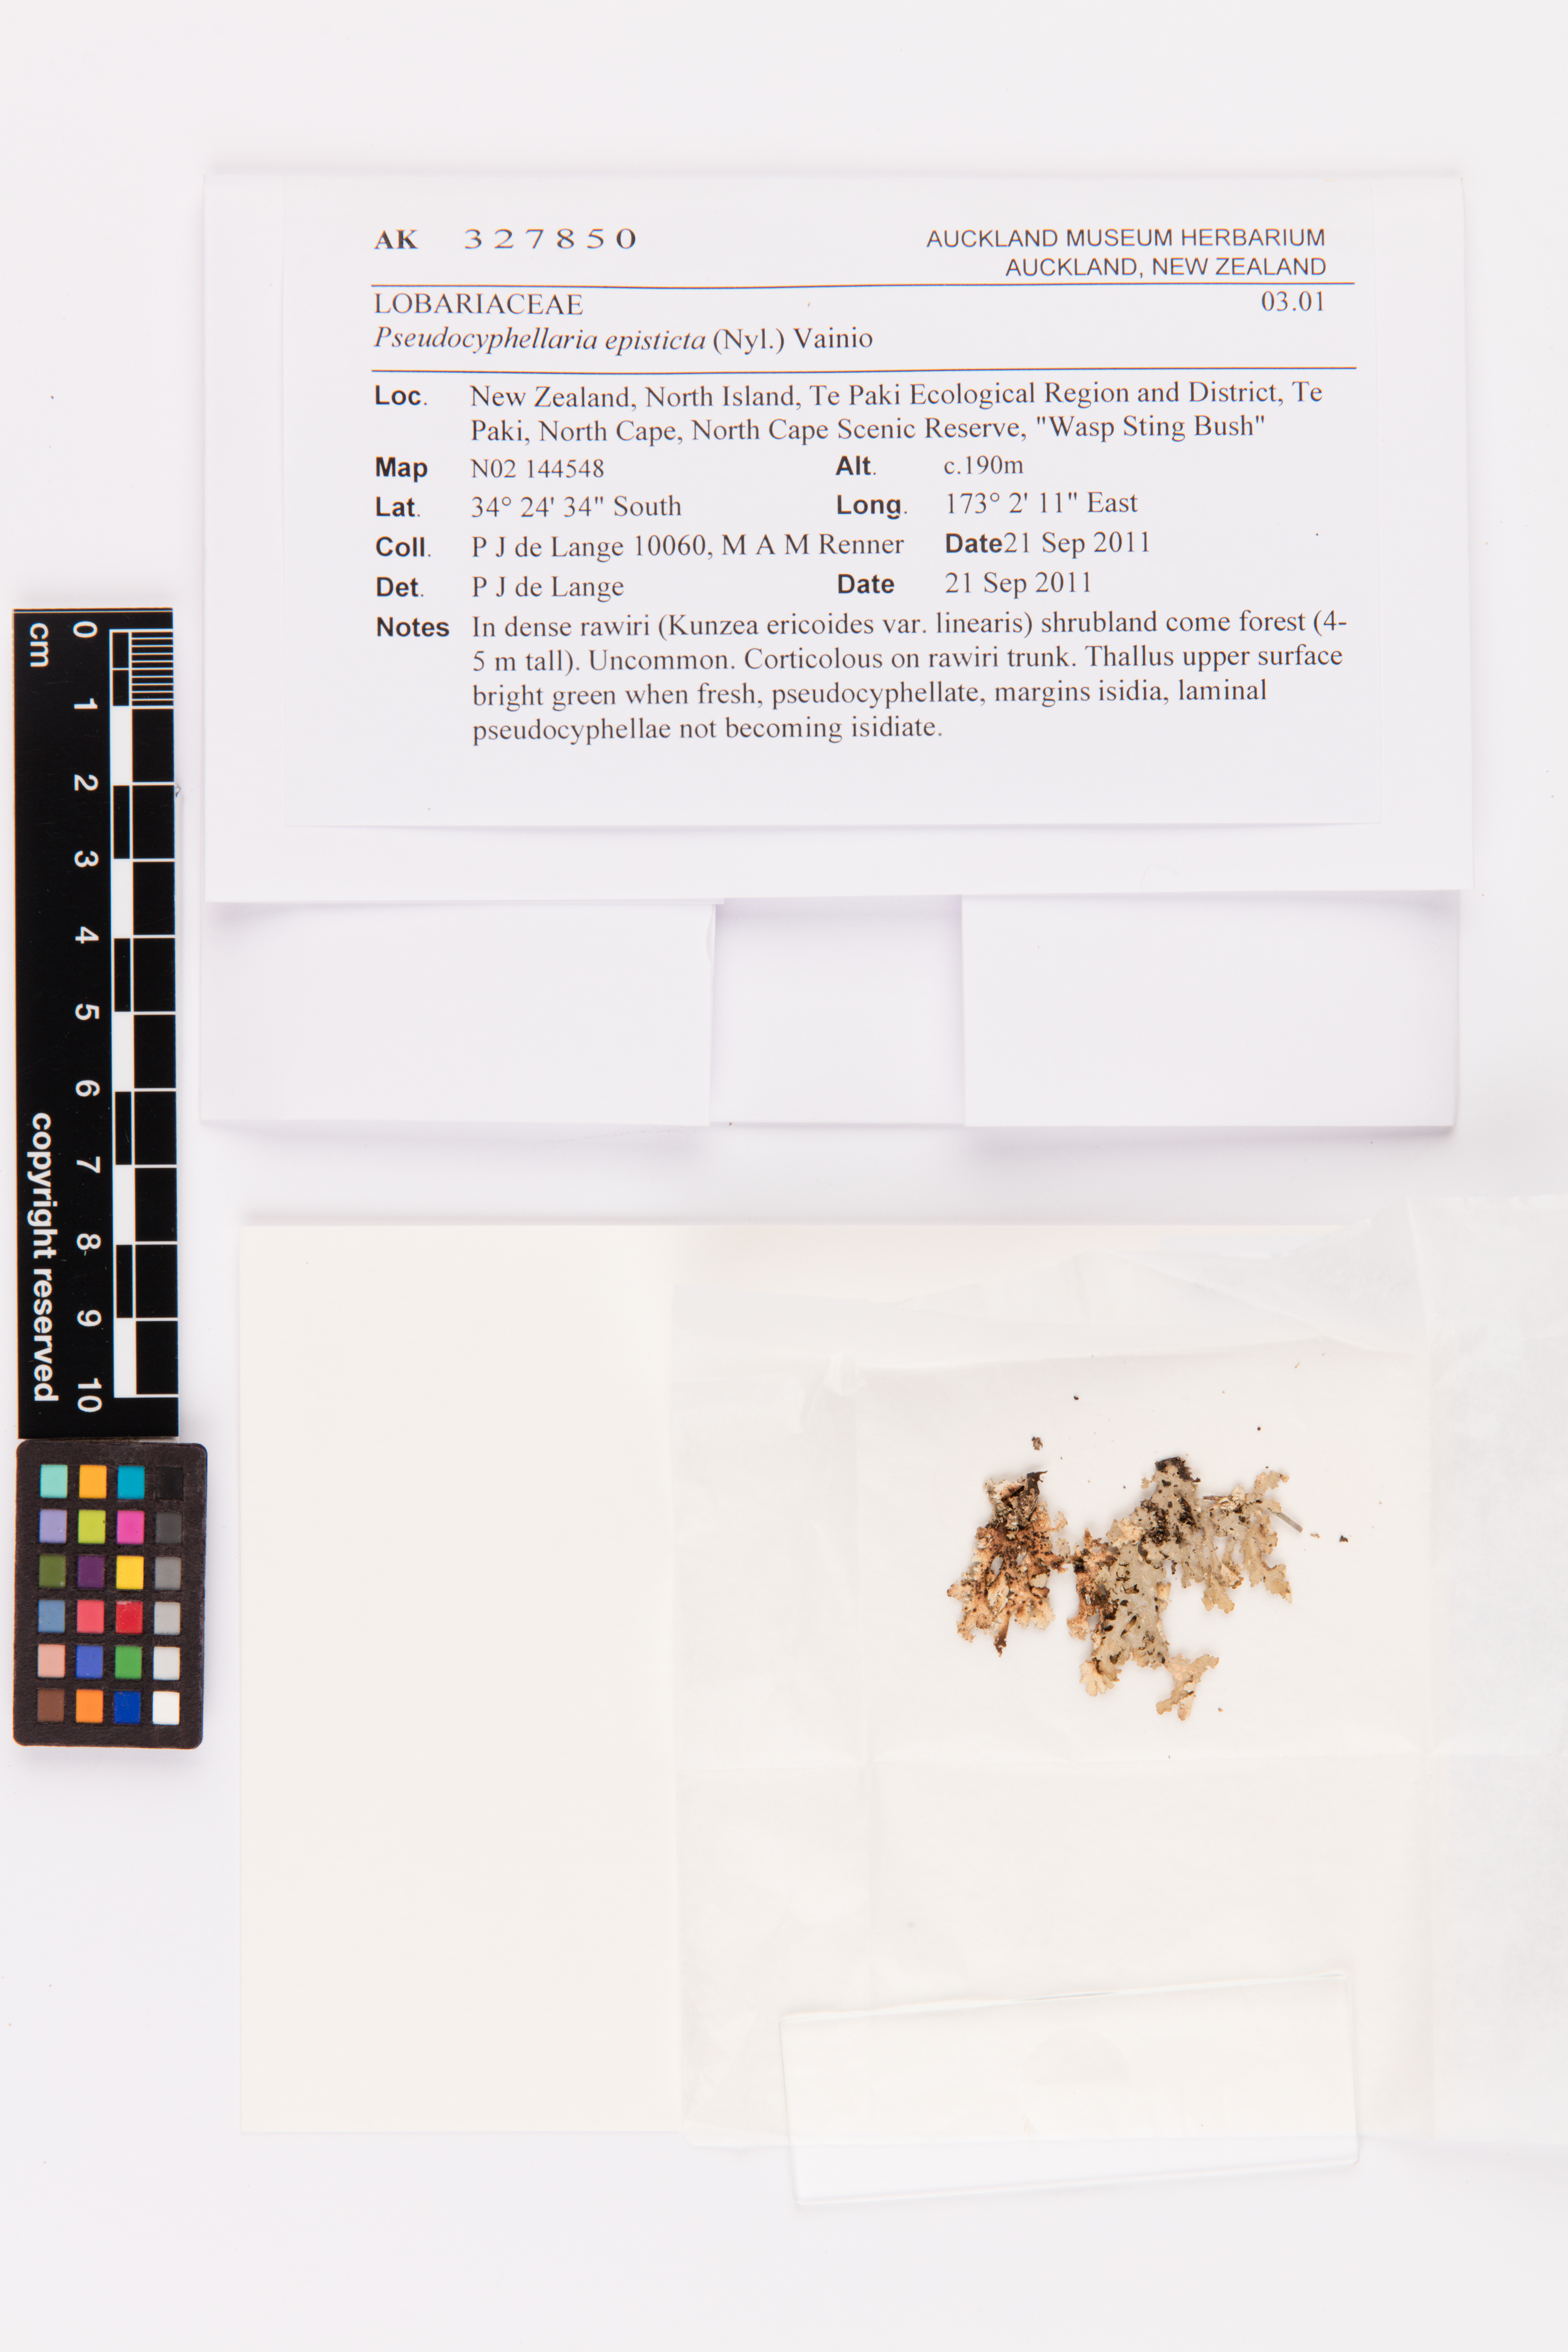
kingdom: Fungi
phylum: Ascomycota
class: Lecanoromycetes
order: Peltigerales
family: Lobariaceae
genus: Pseudocyphellaria
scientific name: Pseudocyphellaria episticta
